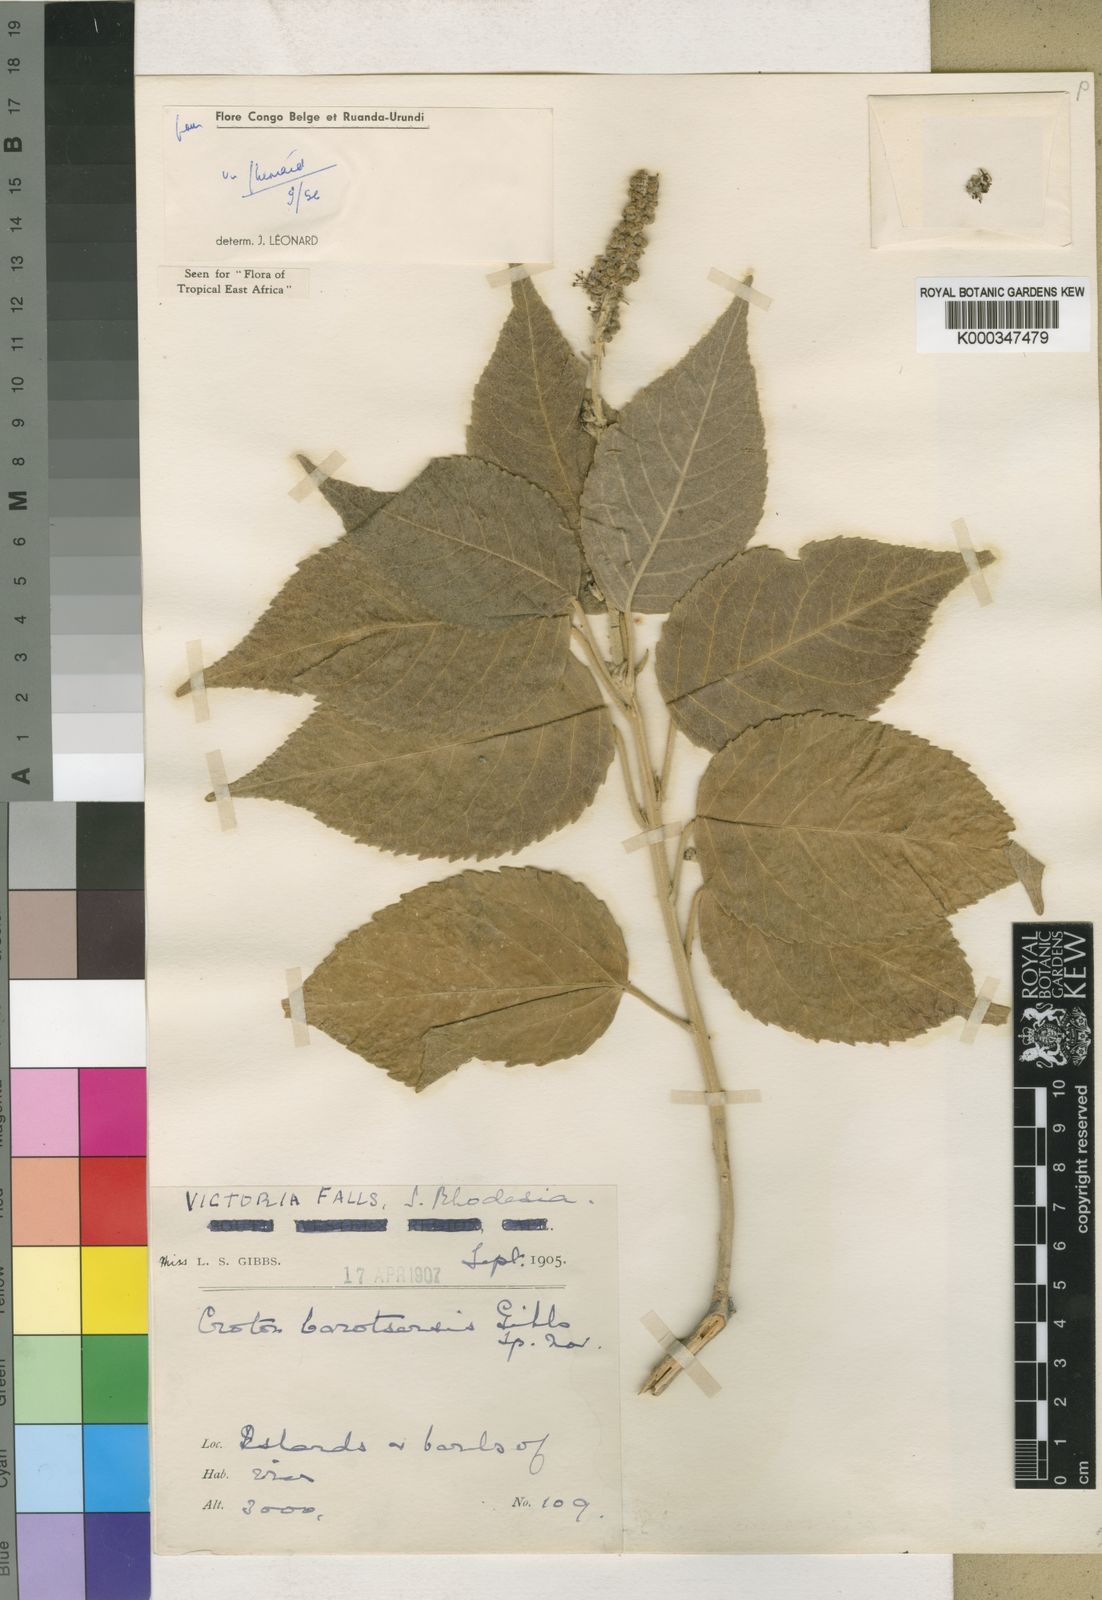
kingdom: Plantae
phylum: Tracheophyta
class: Magnoliopsida
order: Malpighiales
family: Euphorbiaceae
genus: Croton
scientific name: Croton leuconeurus
